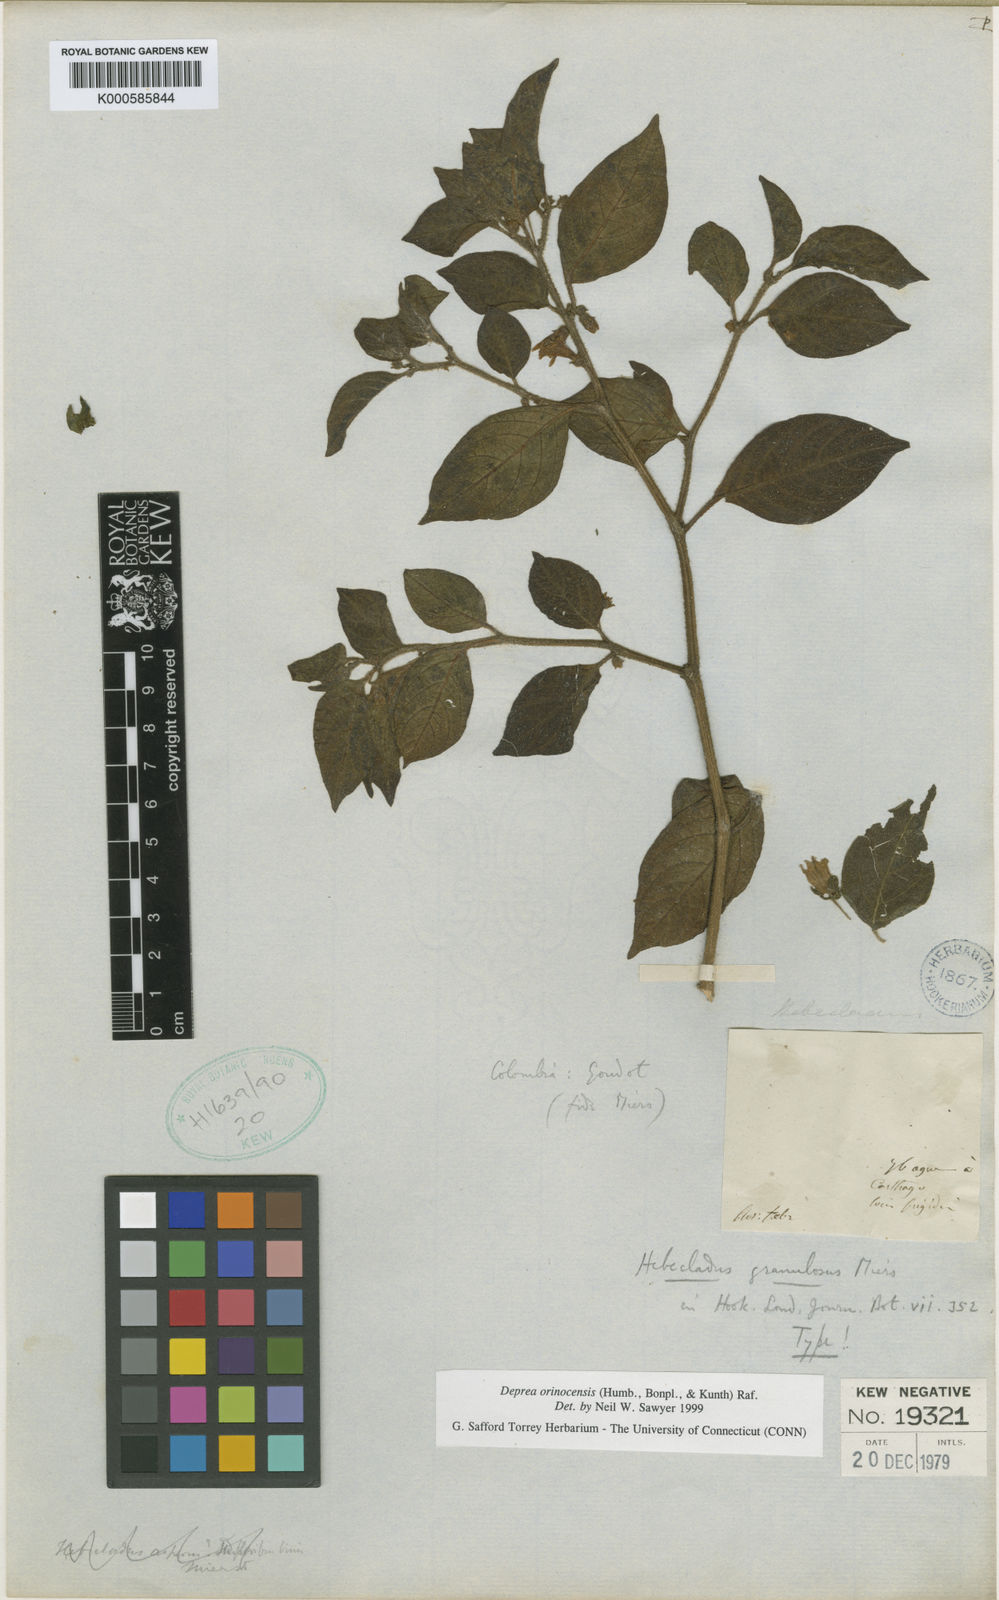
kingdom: Plantae
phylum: Tracheophyta
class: Magnoliopsida
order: Solanales
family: Solanaceae
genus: Deprea
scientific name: Deprea orinocensis
